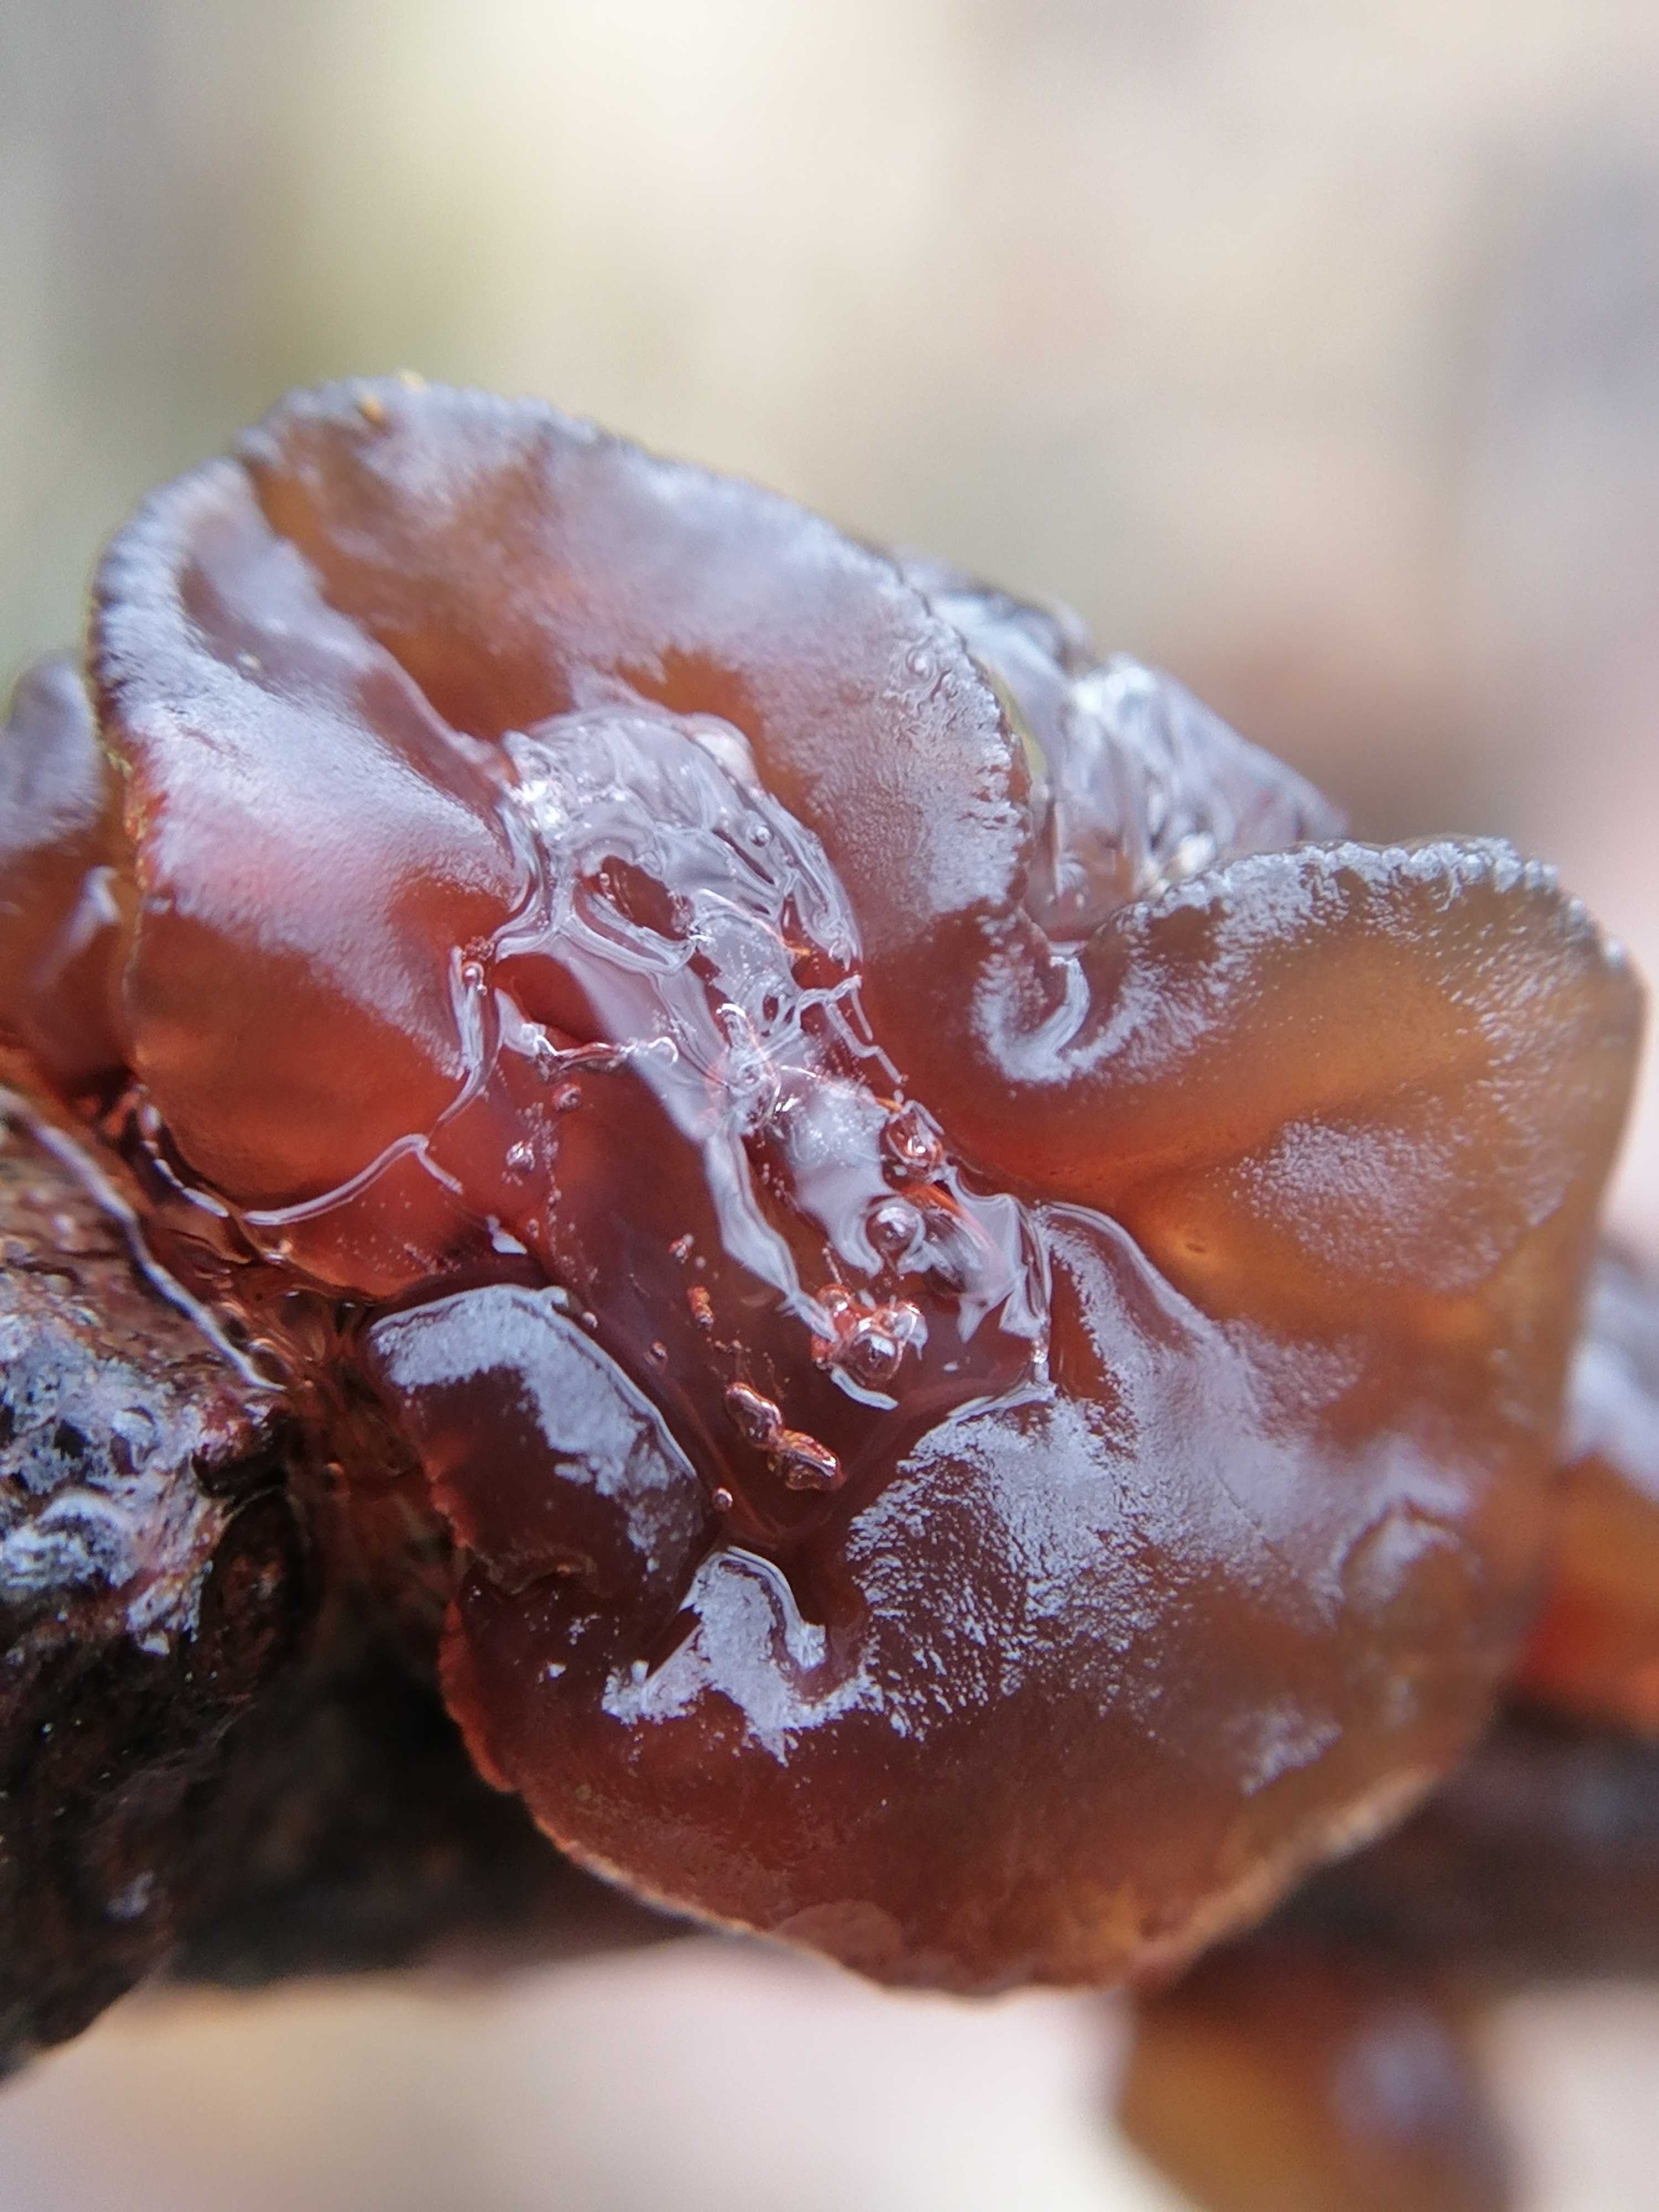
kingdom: Fungi
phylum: Basidiomycota
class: Tremellomycetes
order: Tremellales
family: Exidiaceae
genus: Exidia
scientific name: Exidia
